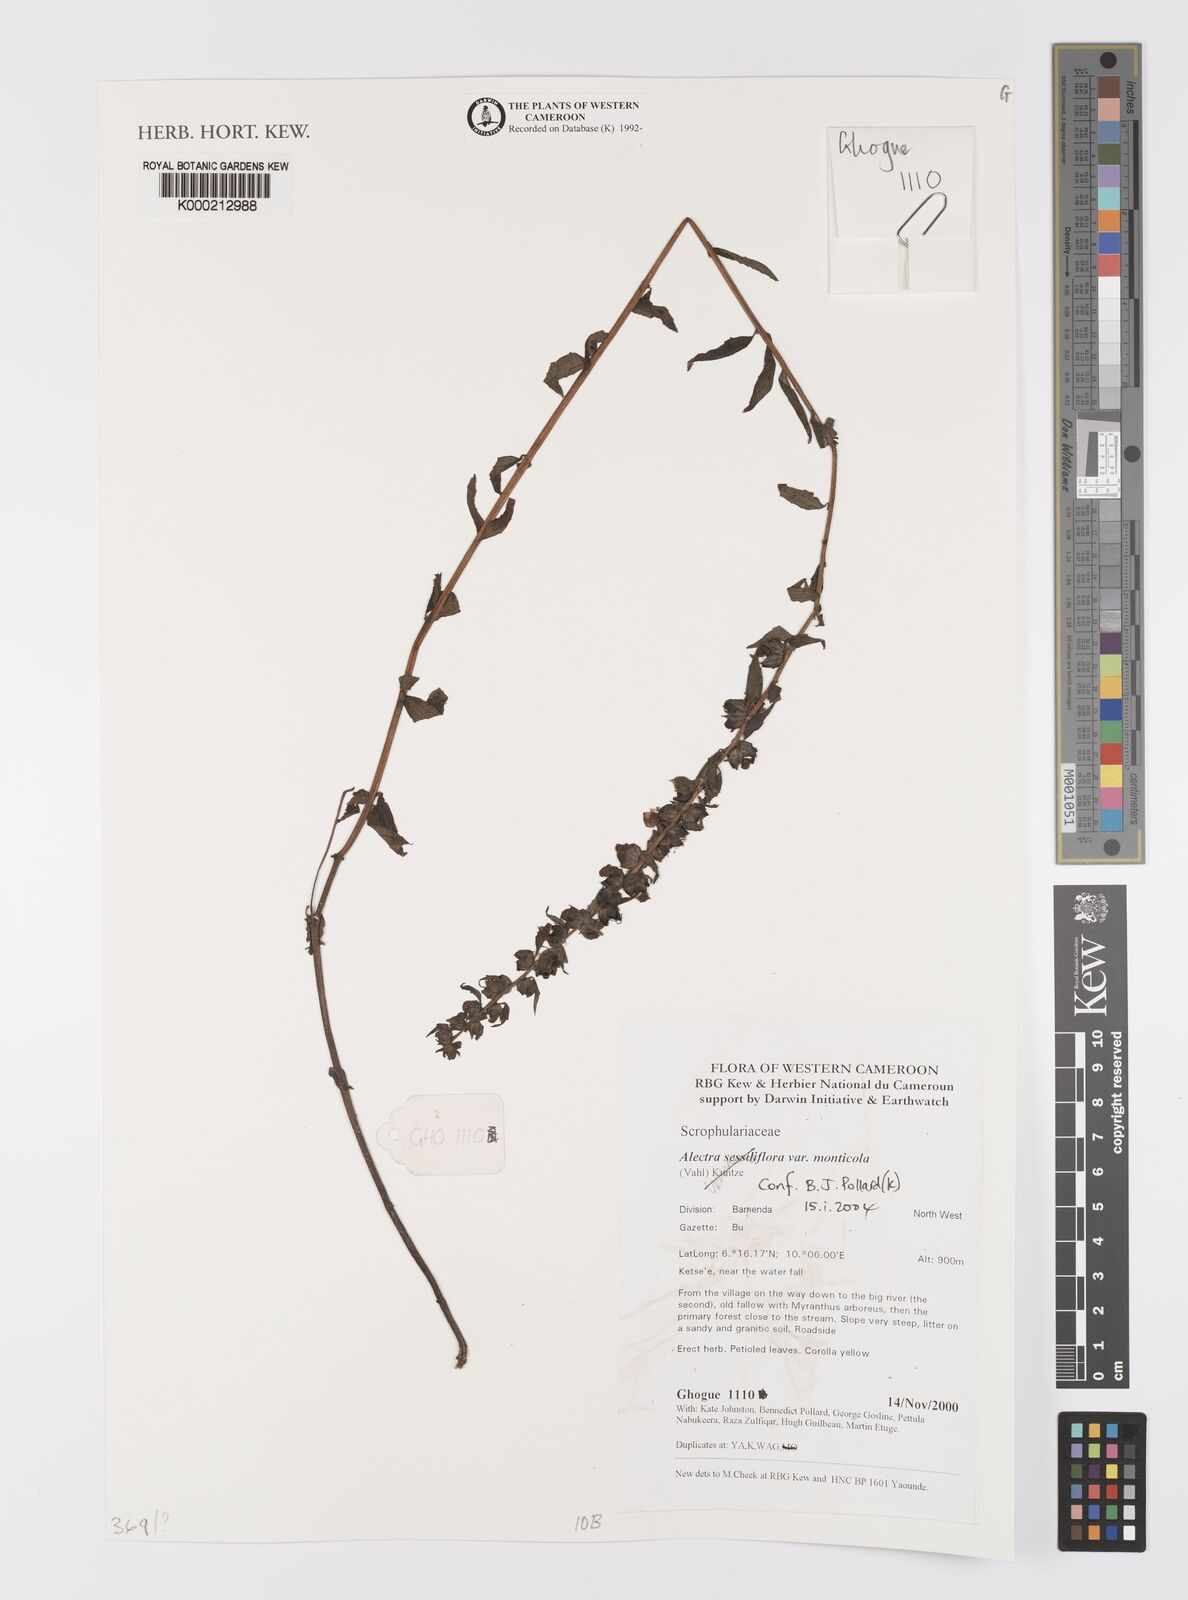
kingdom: Plantae
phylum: Tracheophyta
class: Magnoliopsida
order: Lamiales
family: Orobanchaceae
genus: Alectra
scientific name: Alectra sessiliflora
